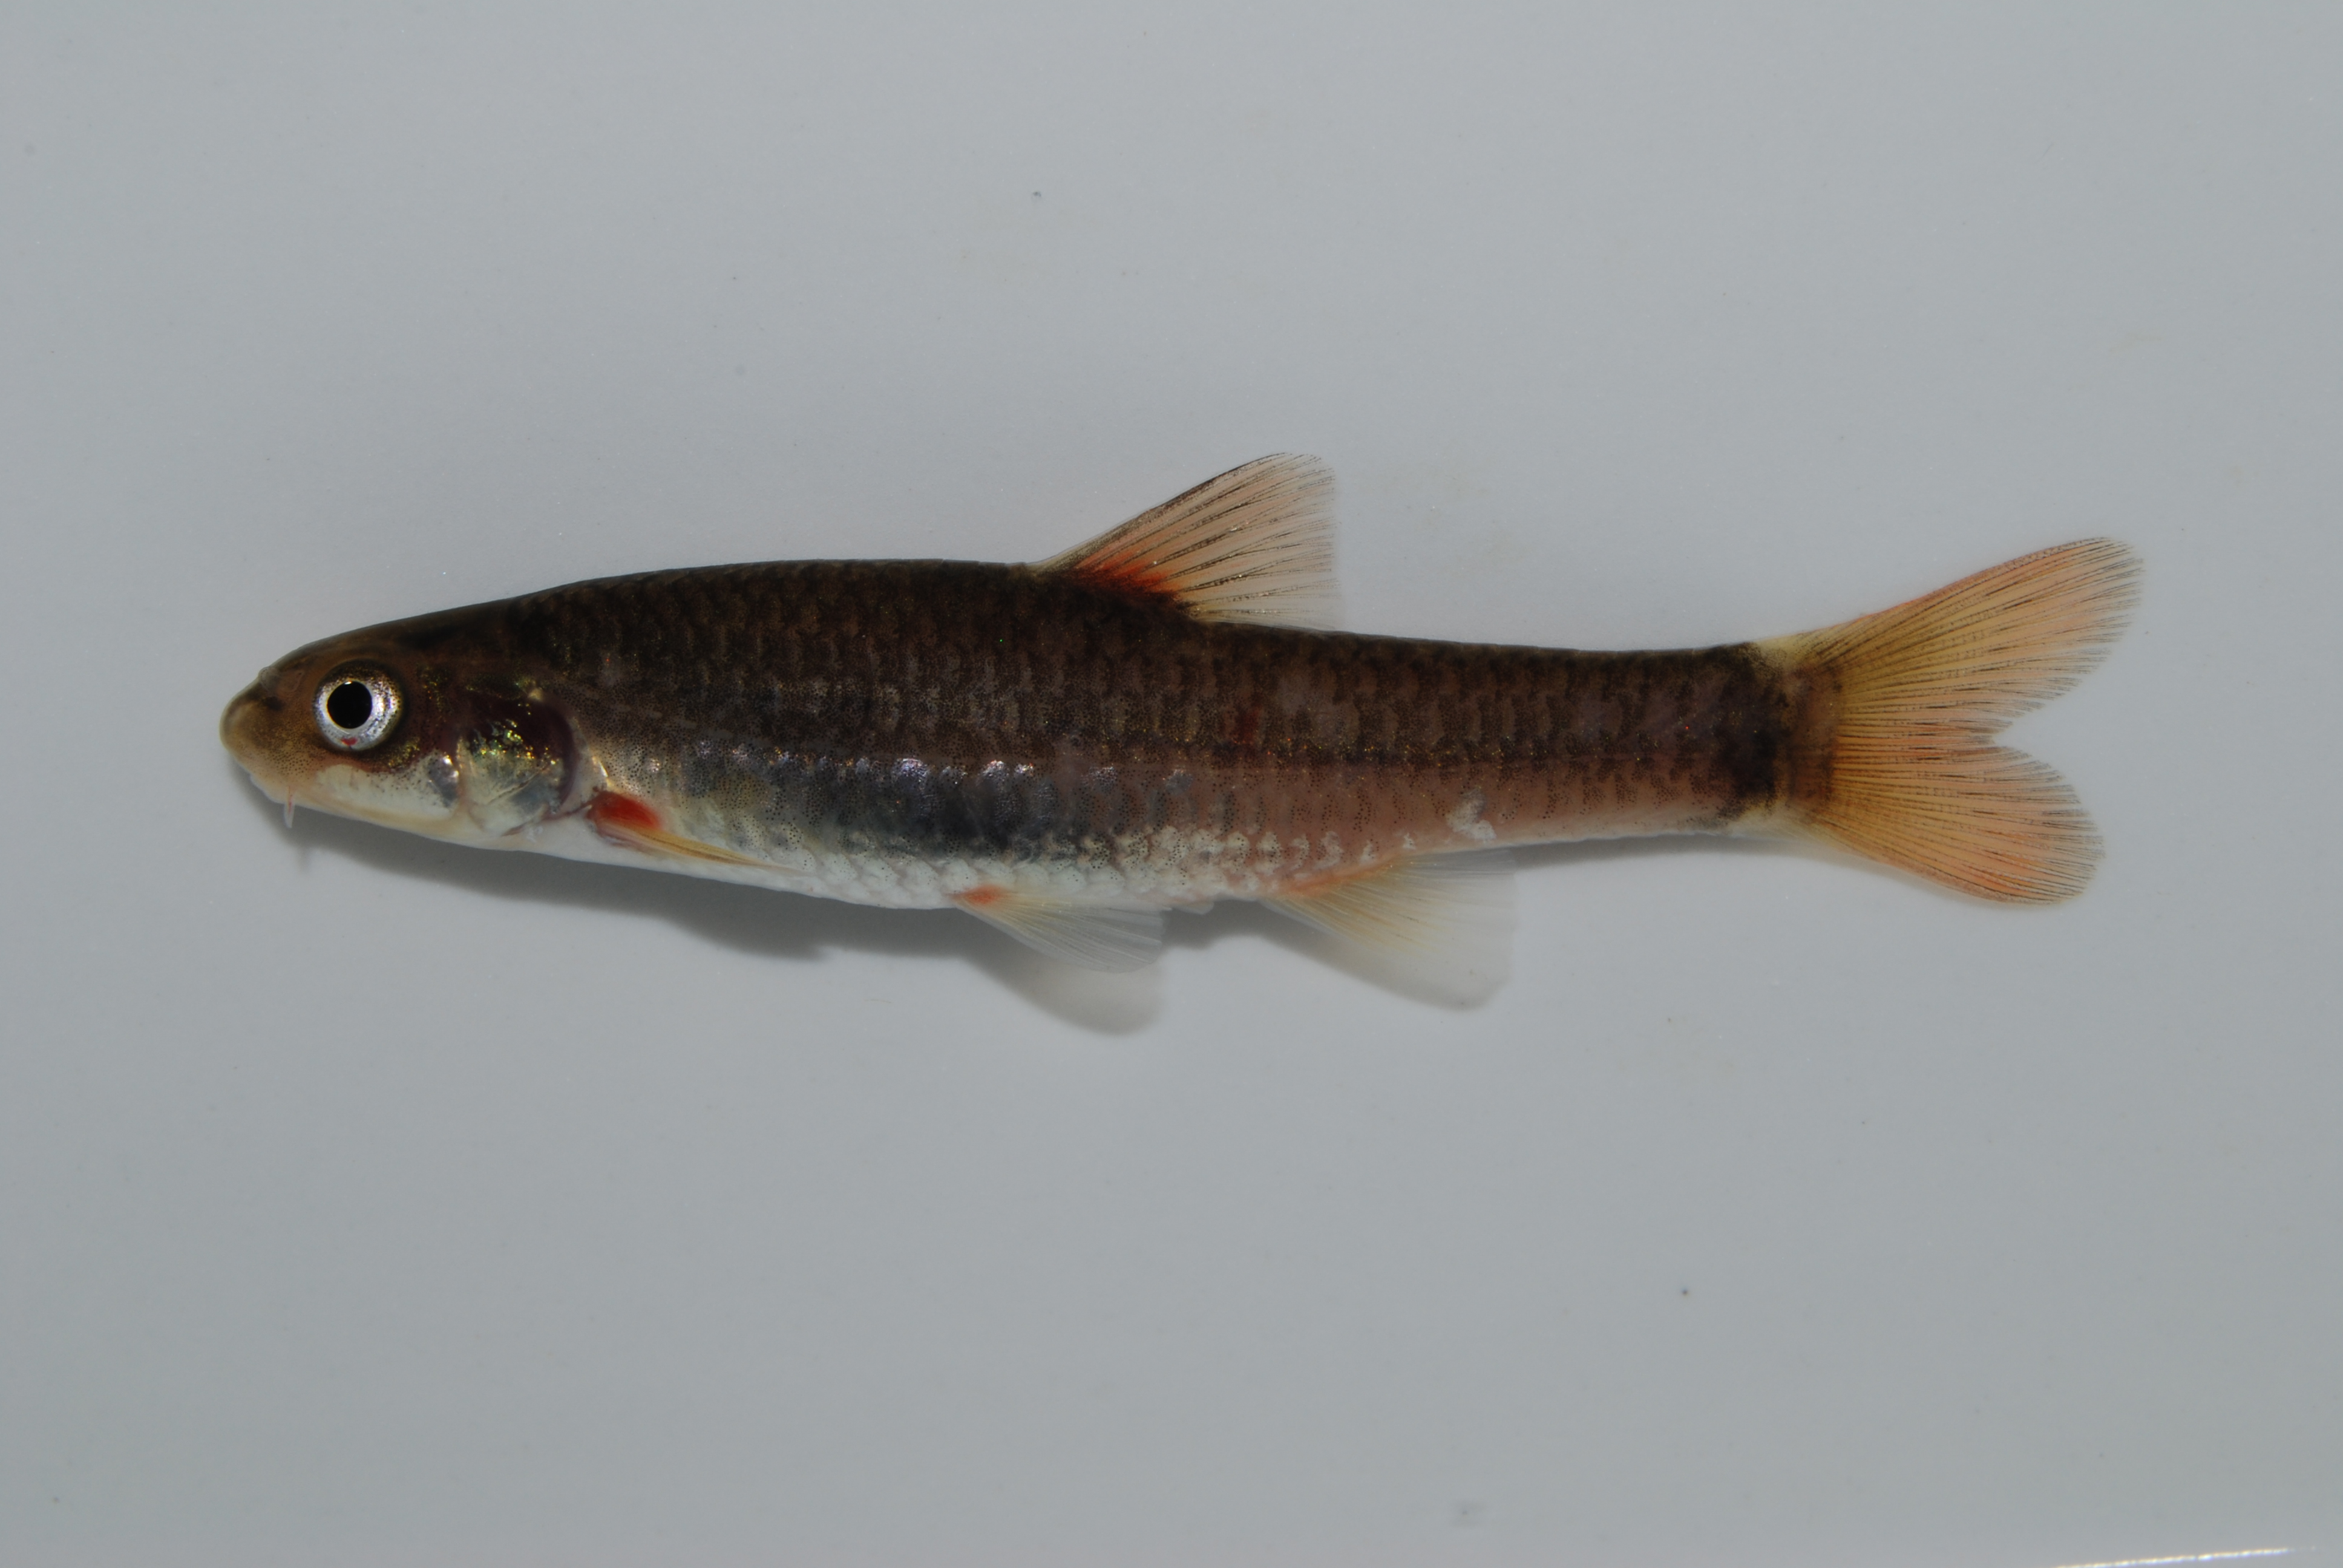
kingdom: Animalia
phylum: Chordata
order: Cypriniformes
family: Cyprinidae
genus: Pseudobarbus
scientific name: Pseudobarbus tenuis
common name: Slender redfin
